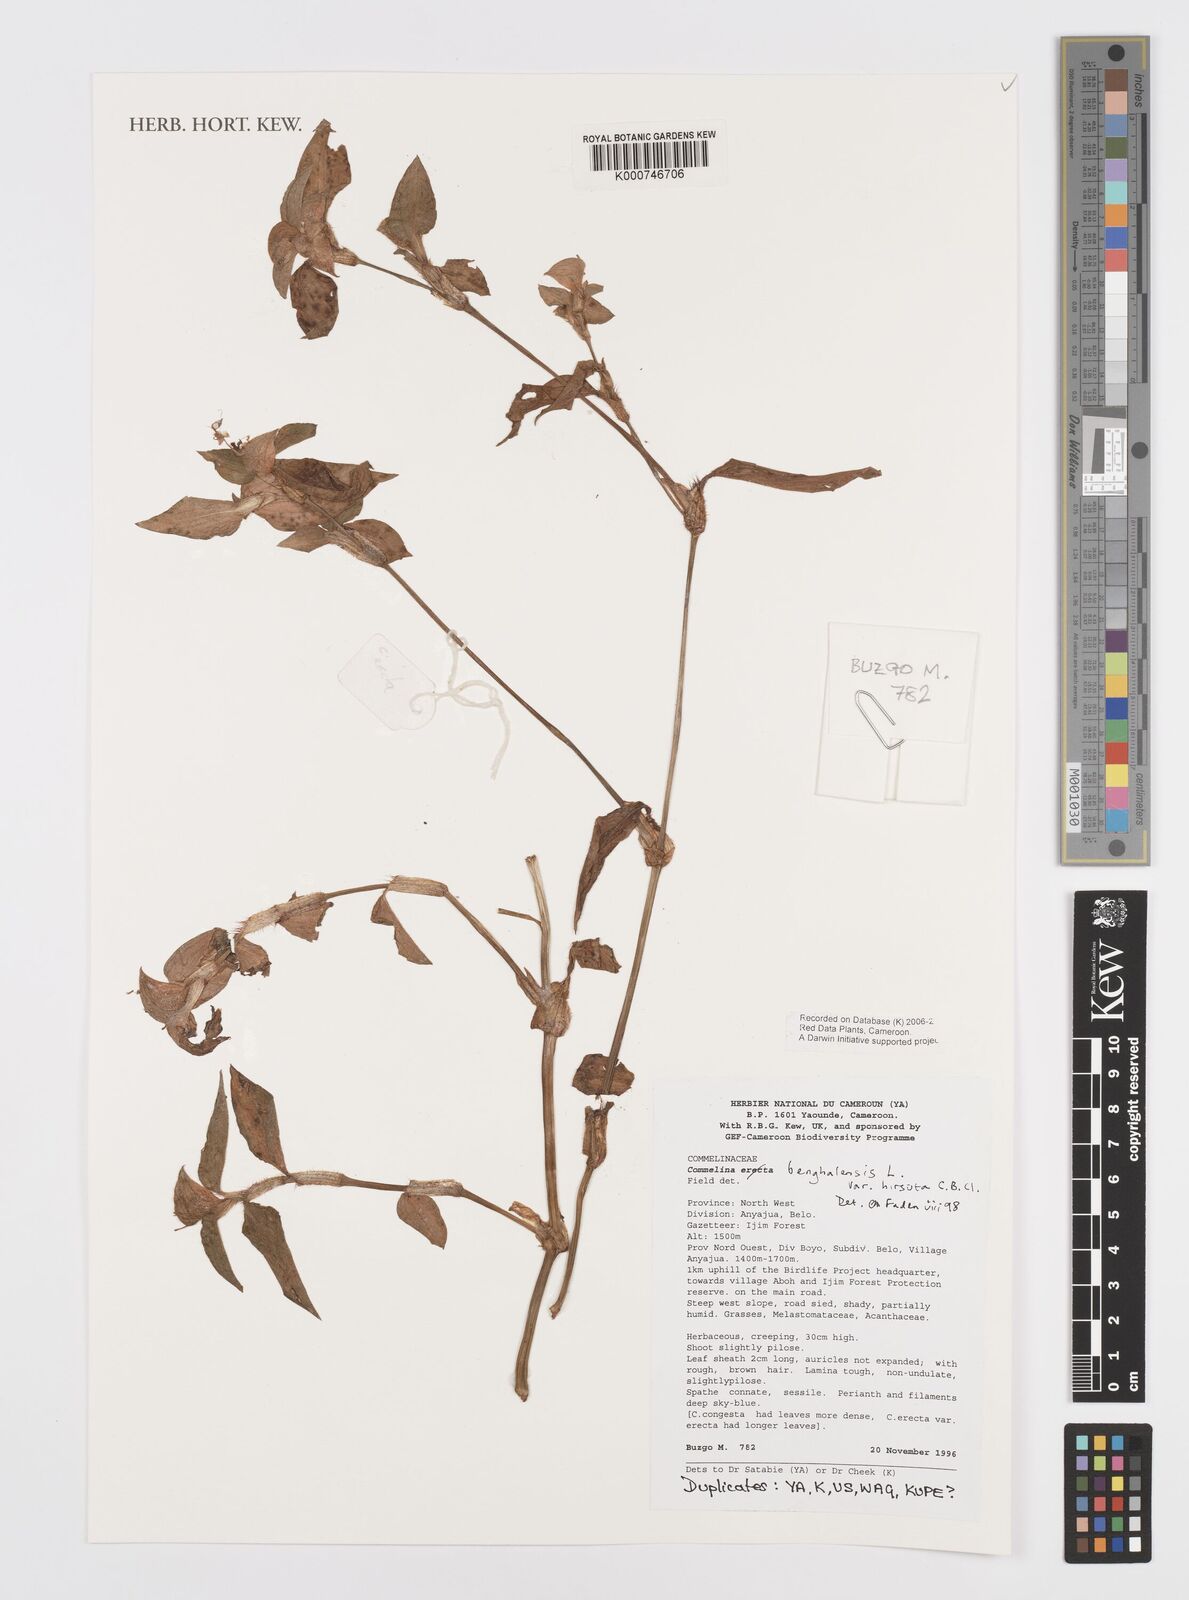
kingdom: Plantae
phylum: Tracheophyta
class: Liliopsida
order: Commelinales
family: Commelinaceae
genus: Commelina
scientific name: Commelina benghalensis
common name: Jio
